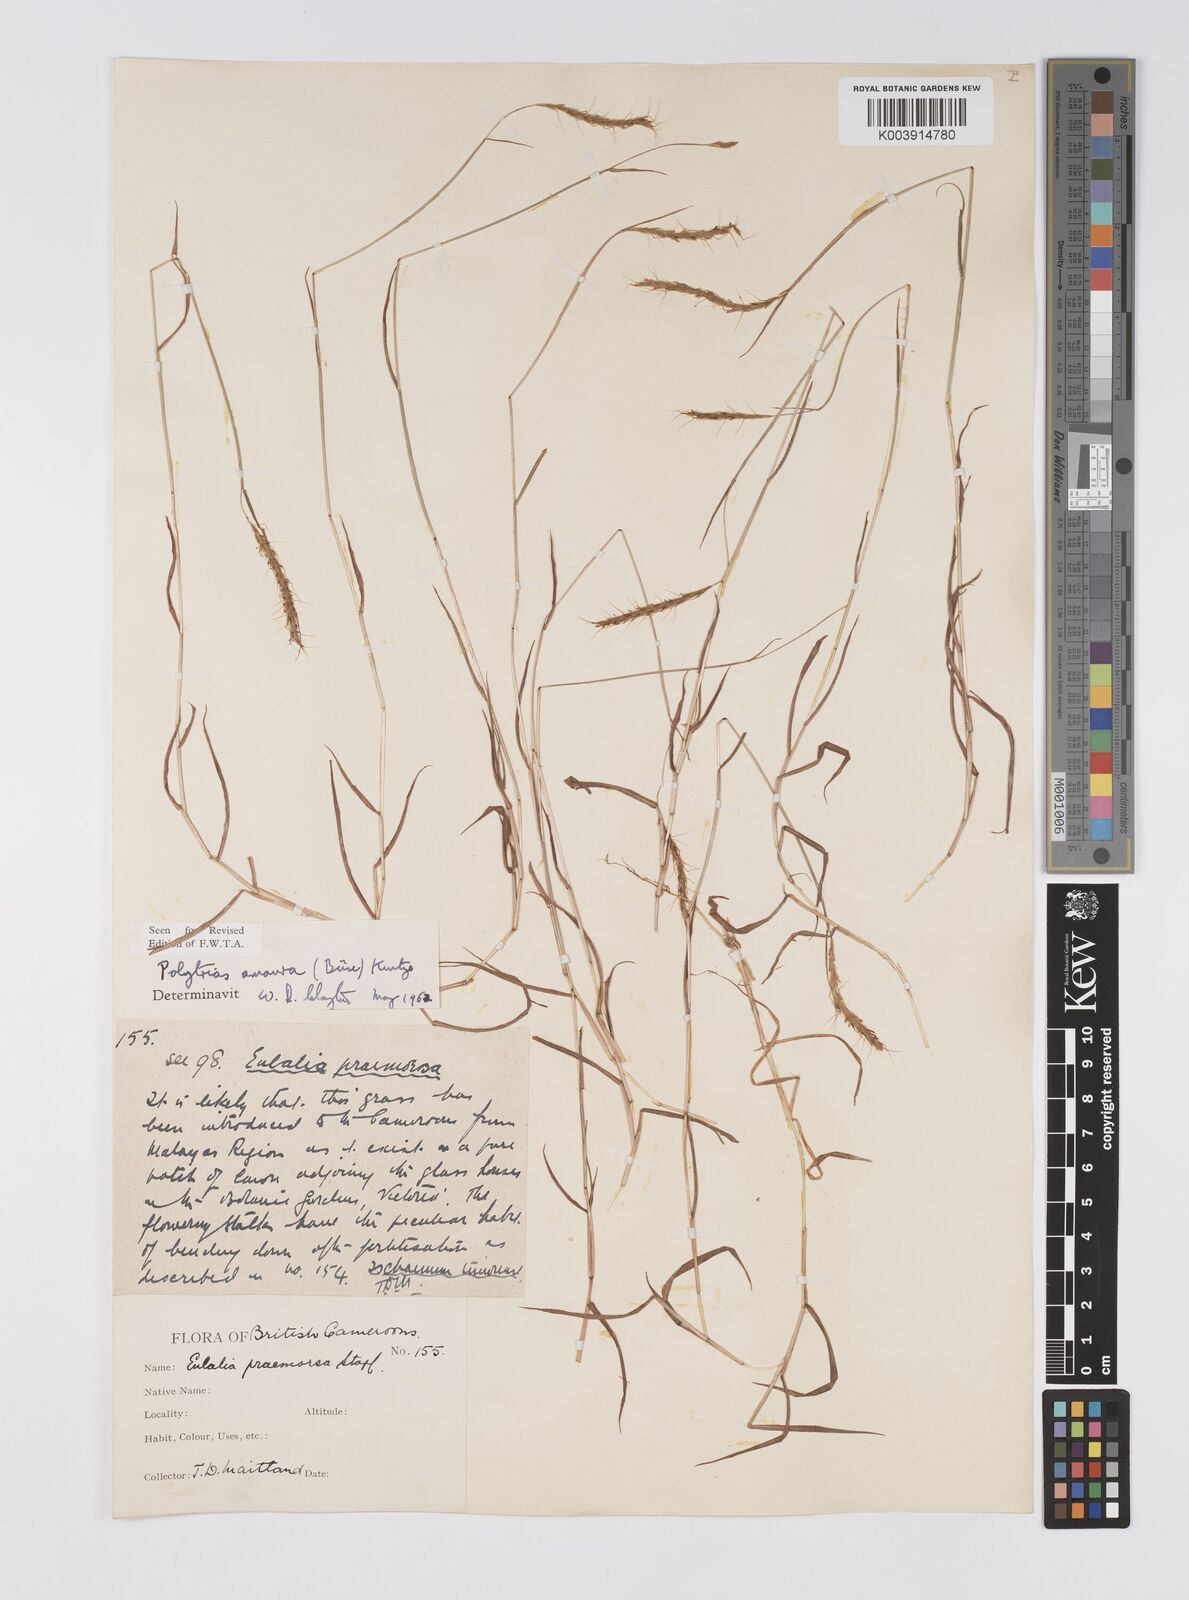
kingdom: Plantae
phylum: Tracheophyta
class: Liliopsida
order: Poales
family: Poaceae
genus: Polytrias
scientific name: Polytrias indica
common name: Indian murainagrass
